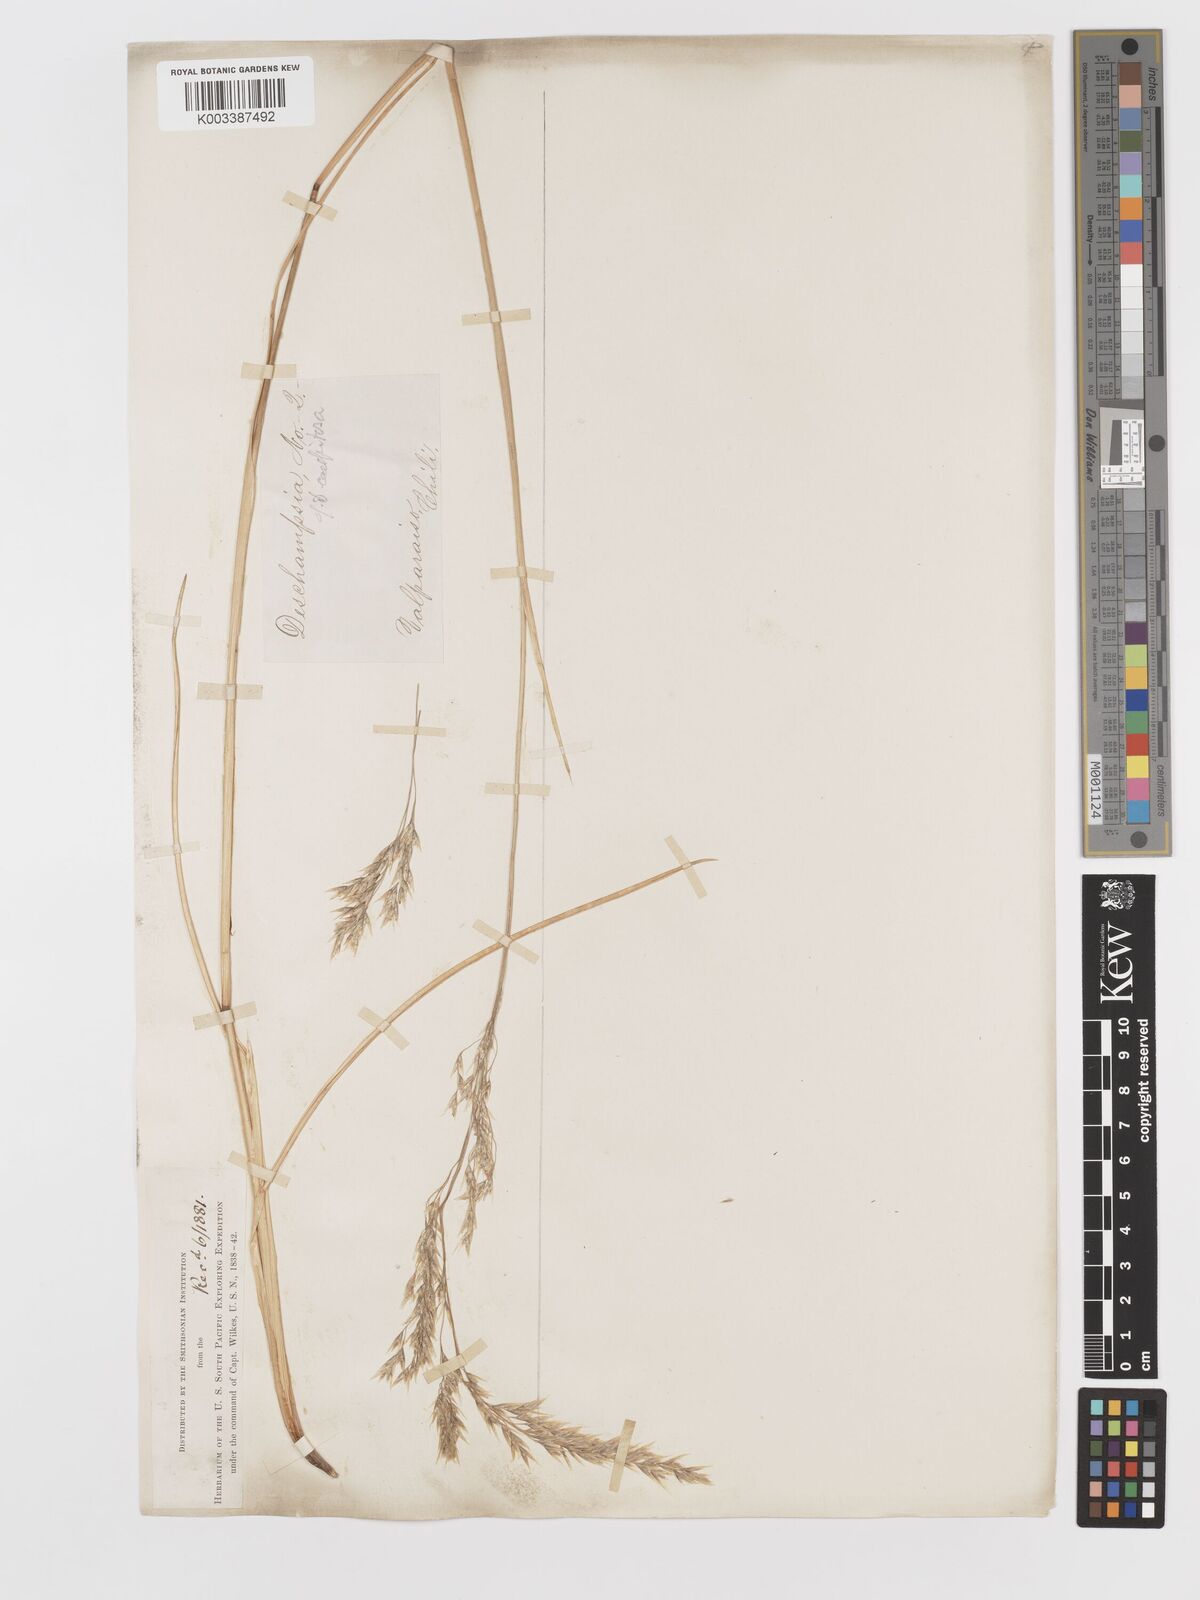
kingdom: Plantae
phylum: Tracheophyta
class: Liliopsida
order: Poales
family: Poaceae
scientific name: Poaceae
